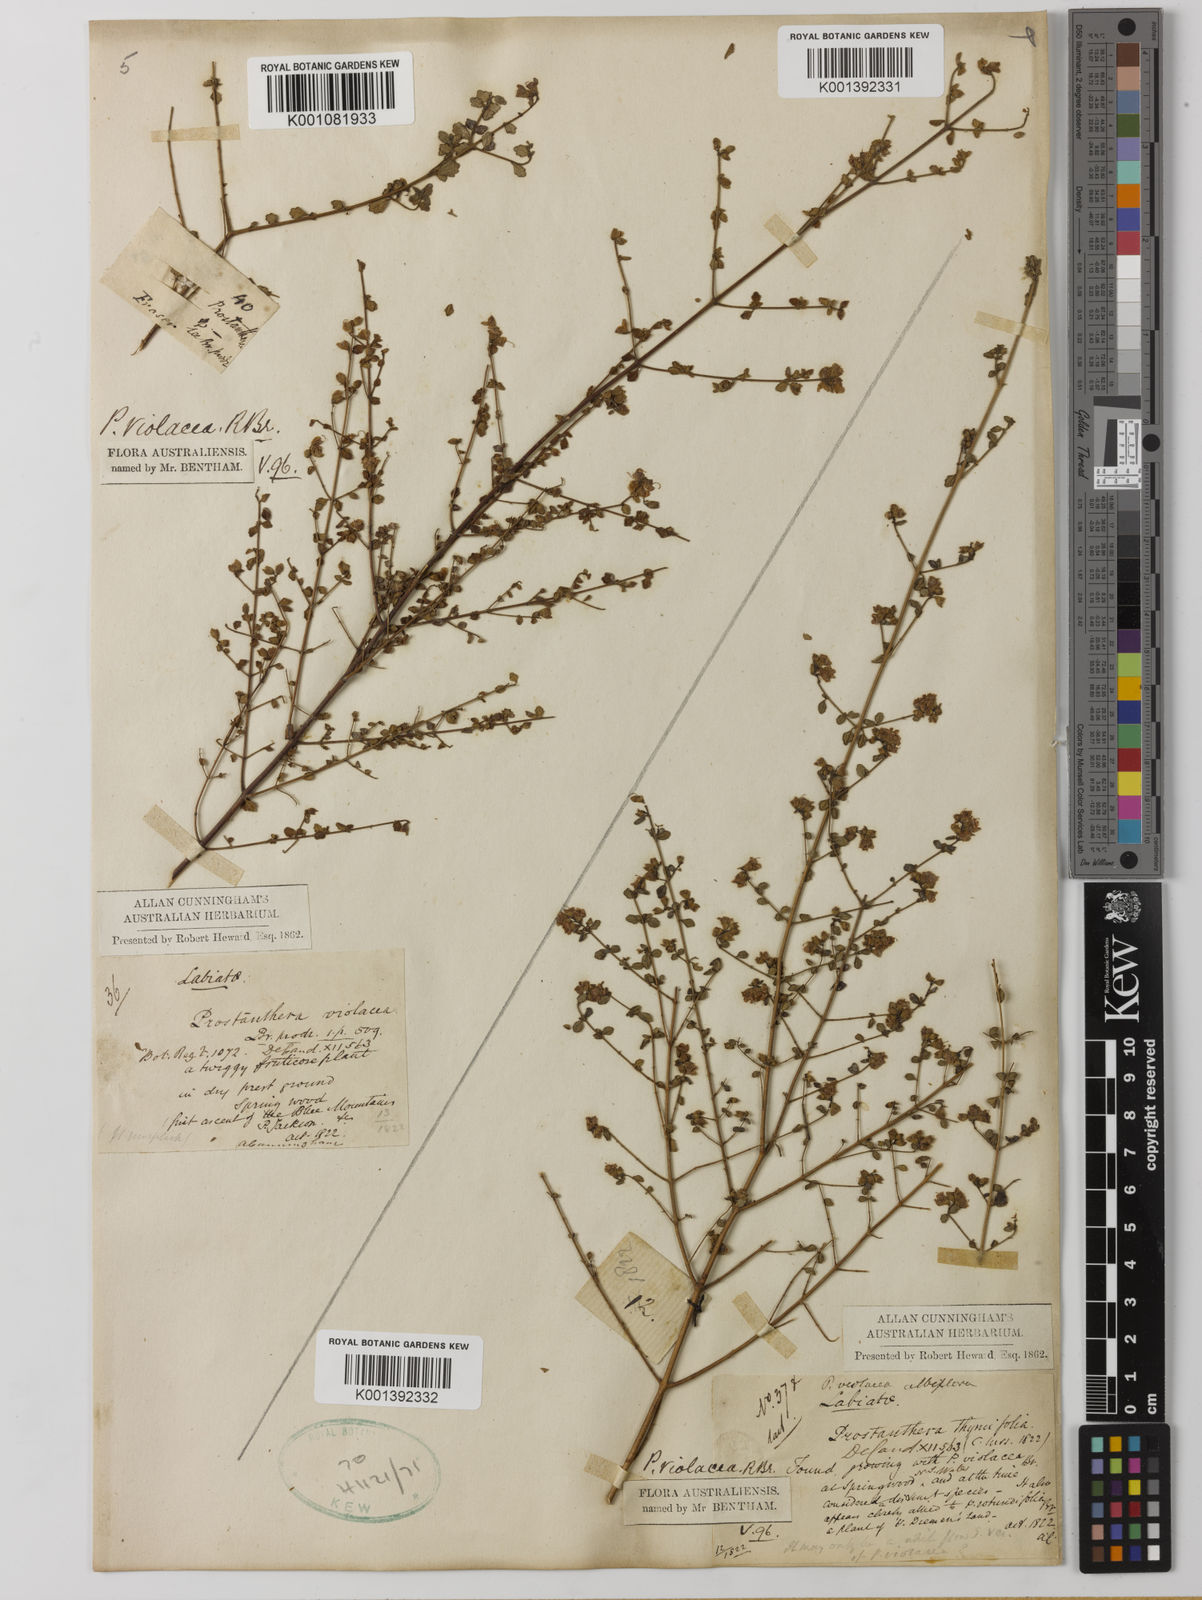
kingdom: Plantae
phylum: Tracheophyta
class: Magnoliopsida
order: Lamiales
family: Lamiaceae
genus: Prostanthera
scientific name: Prostanthera violacea
